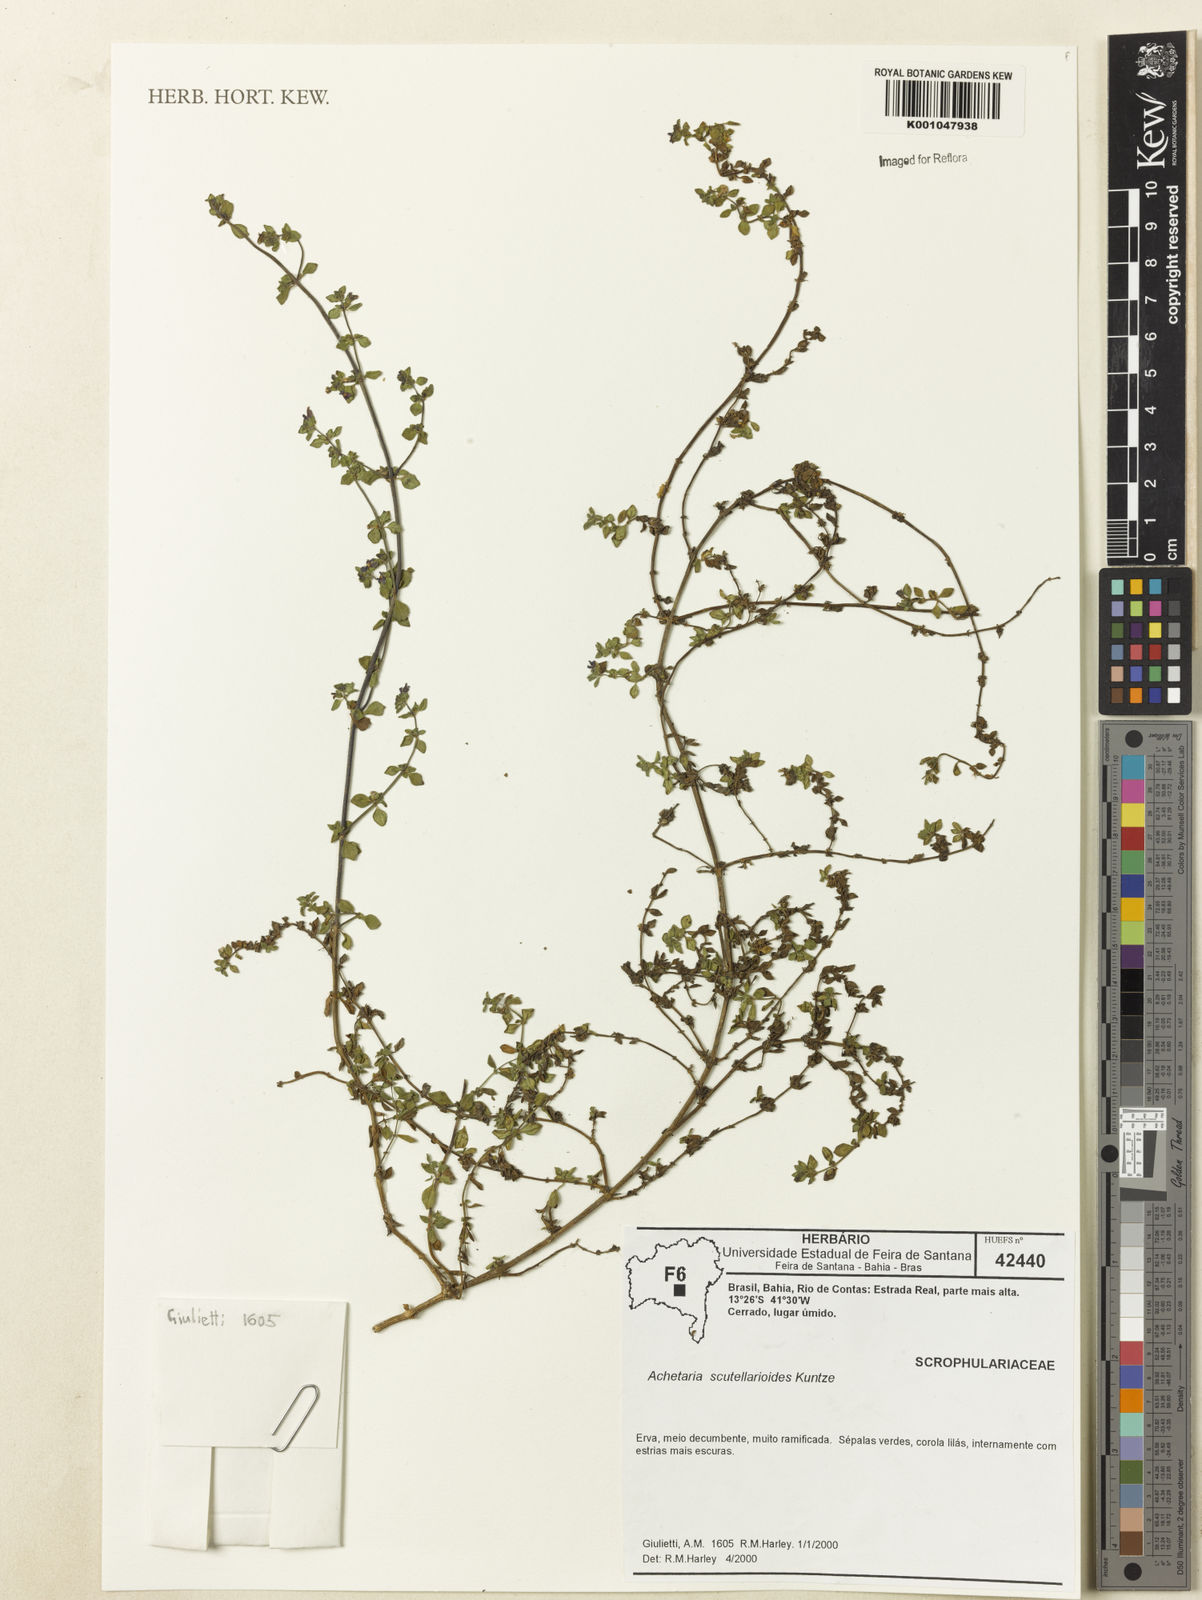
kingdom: Plantae
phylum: Tracheophyta
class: Magnoliopsida
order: Lamiales
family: Plantaginaceae
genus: Matourea
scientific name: Matourea scutellarioides
